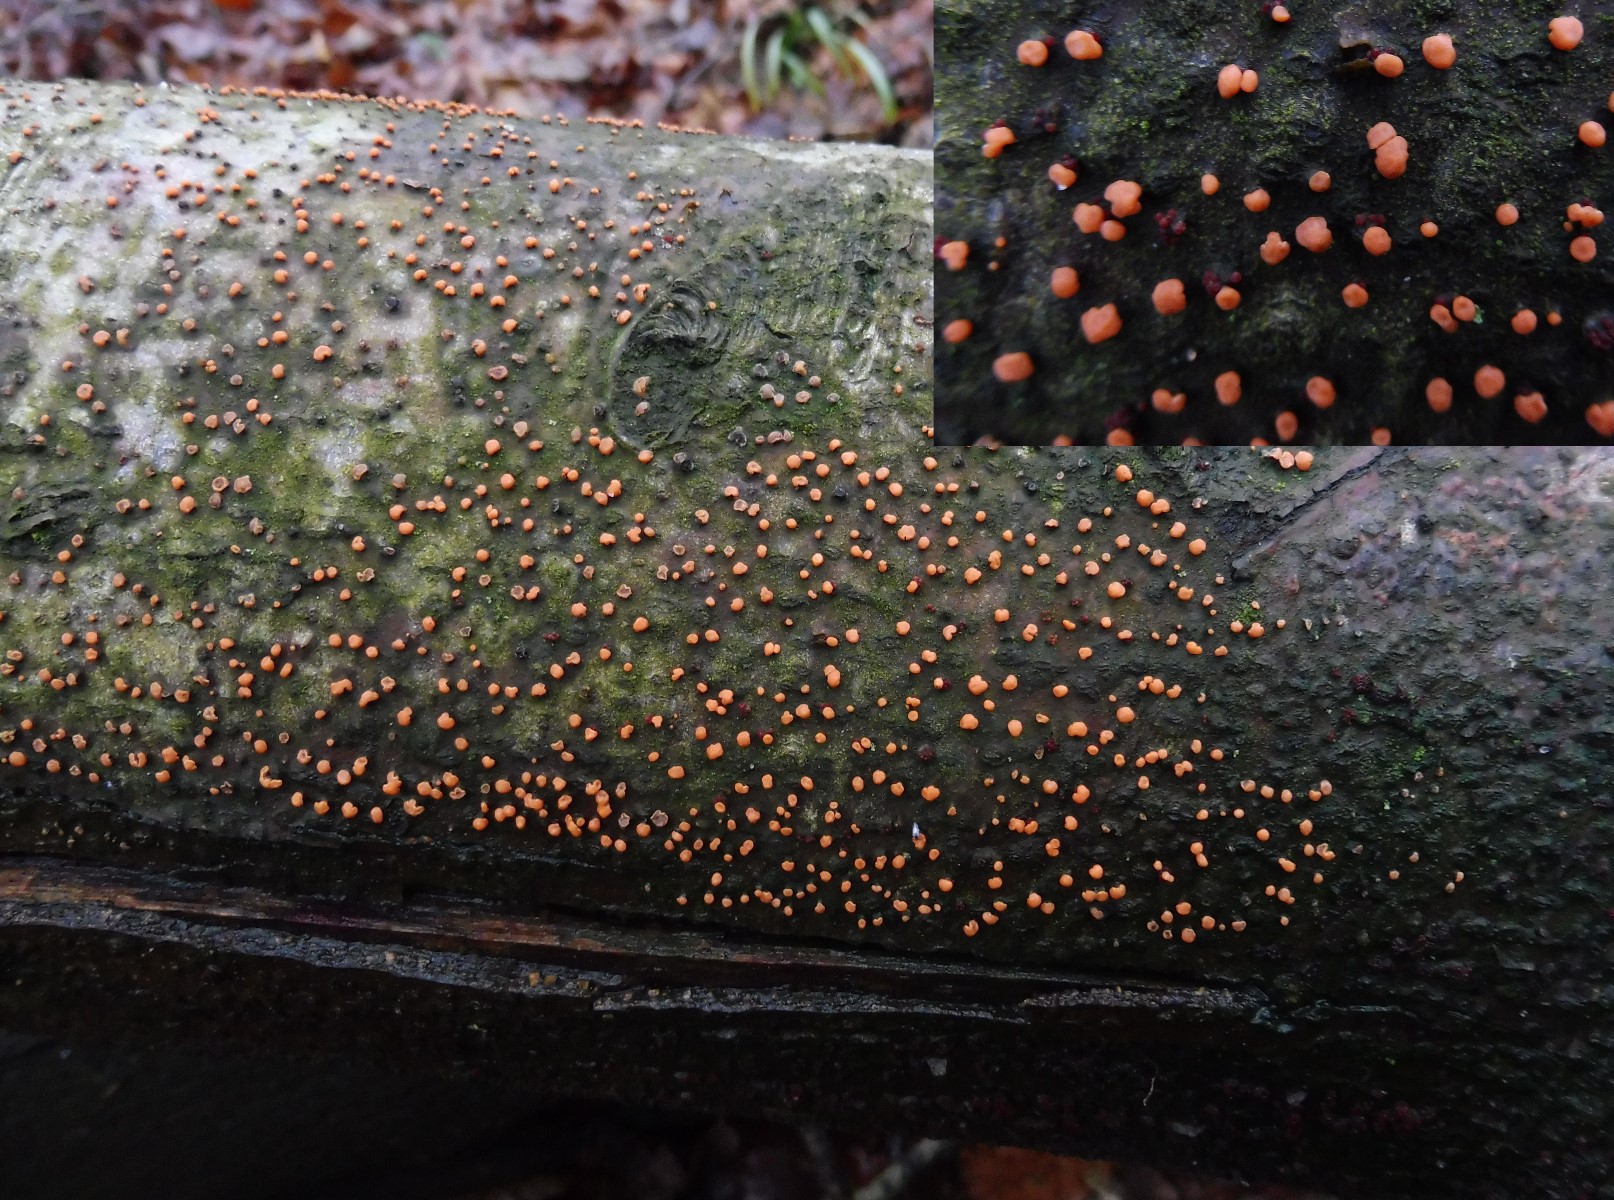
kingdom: Fungi
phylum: Ascomycota
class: Sordariomycetes
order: Hypocreales
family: Nectriaceae
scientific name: Nectriaceae
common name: cinnobersvampfamilien
